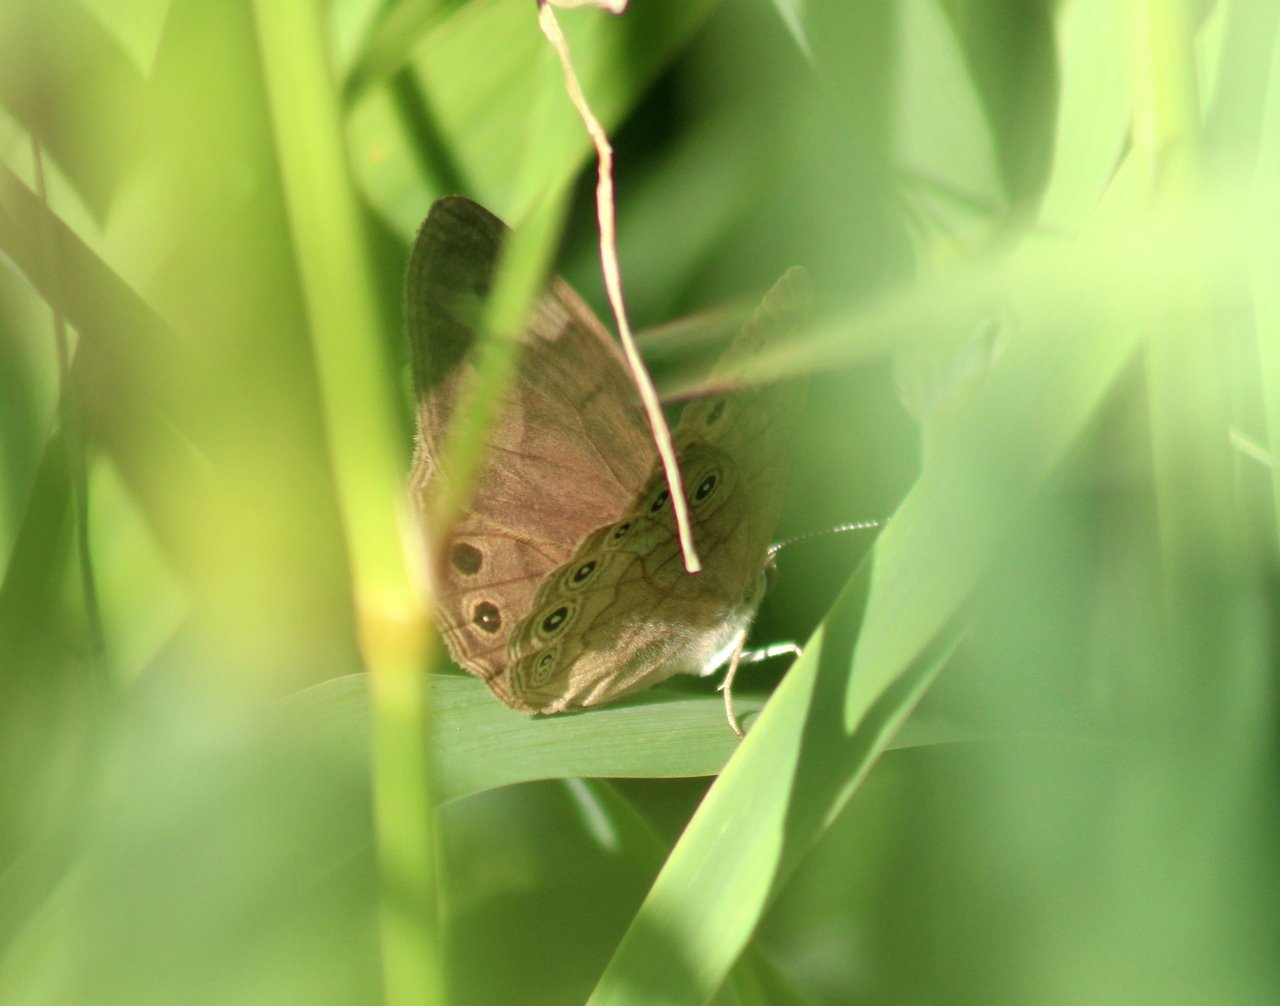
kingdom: Animalia
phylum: Arthropoda
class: Insecta
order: Lepidoptera
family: Nymphalidae
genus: Lethe
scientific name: Lethe eurydice
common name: Eyed Brown
